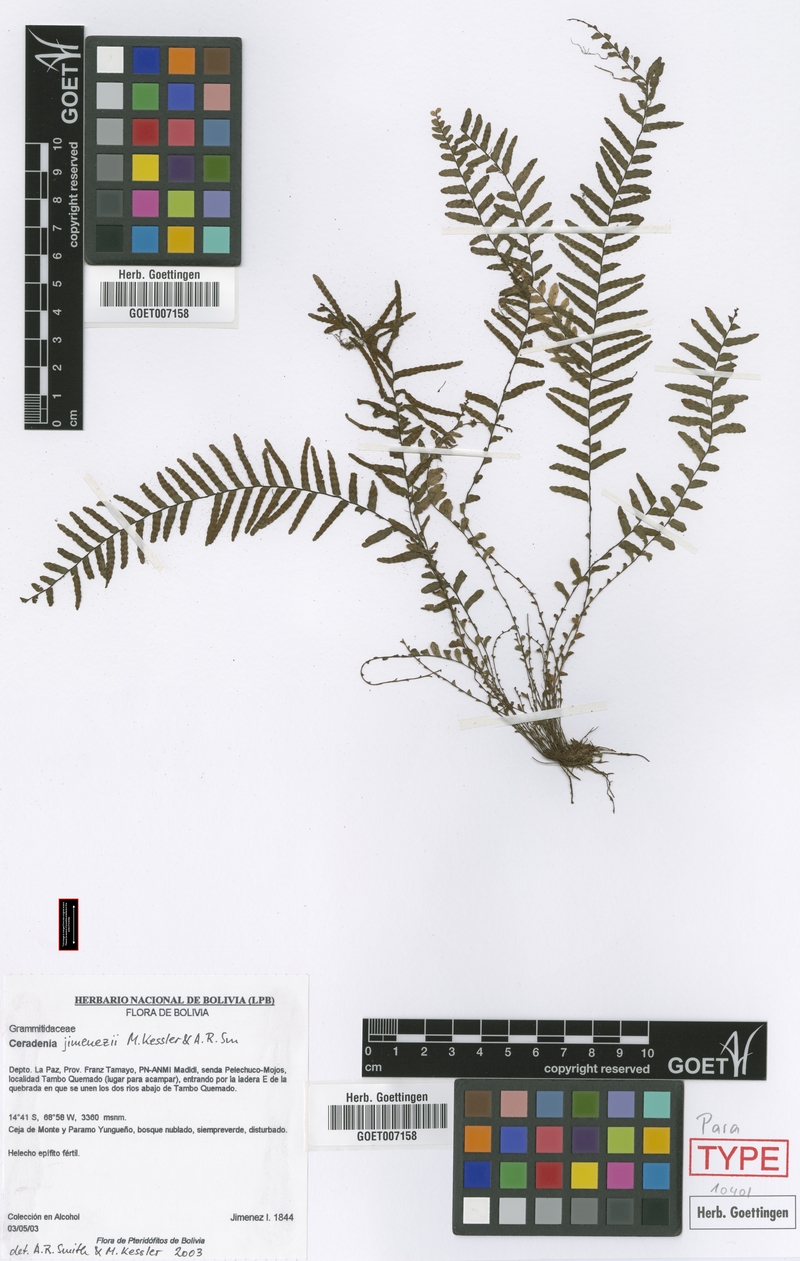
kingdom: Plantae
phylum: Tracheophyta
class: Polypodiopsida
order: Polypodiales
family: Polypodiaceae
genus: Ceradenia
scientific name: Ceradenia jimenezii
